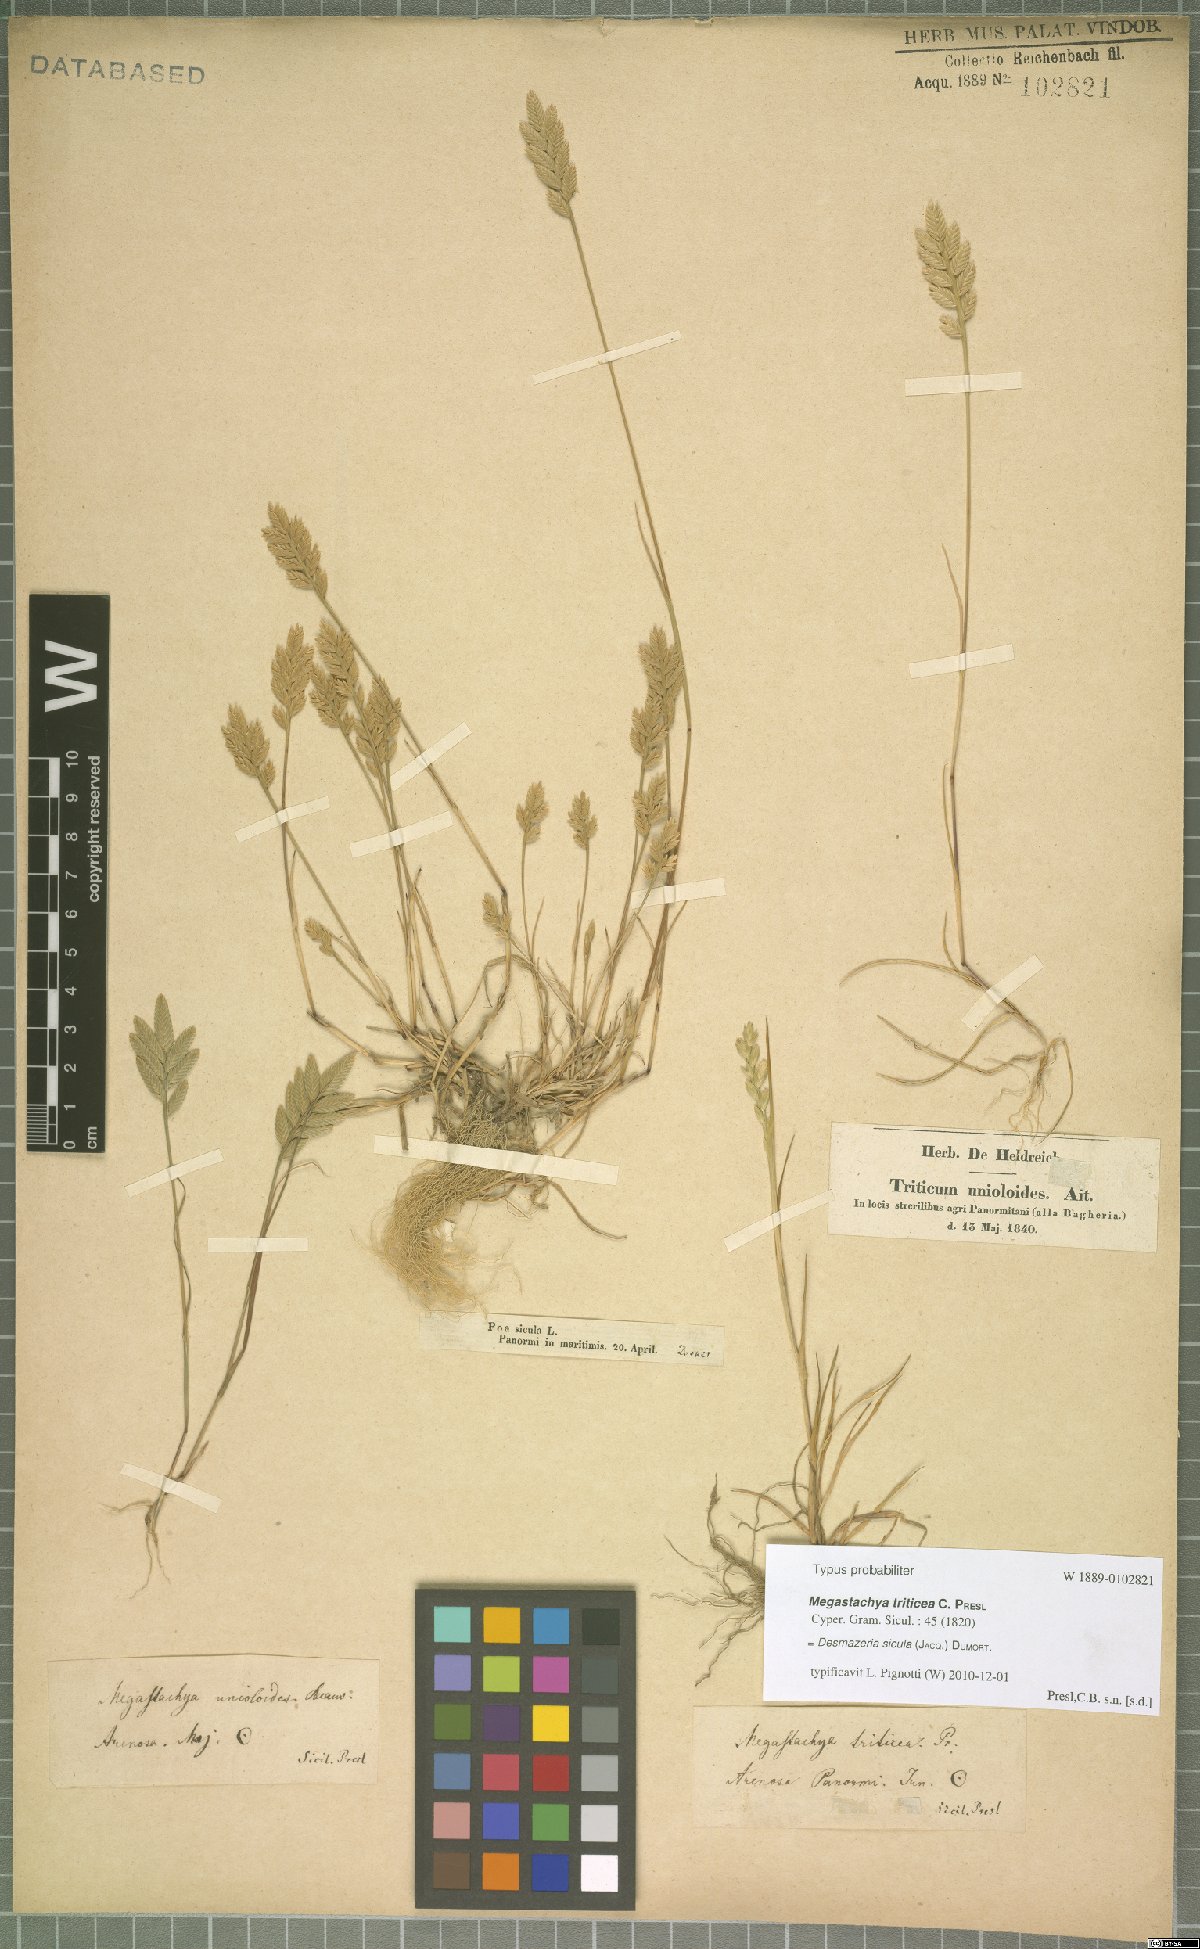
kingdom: Plantae
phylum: Tracheophyta
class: Liliopsida
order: Poales
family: Poaceae
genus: Desmazeria
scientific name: Desmazeria sicula
